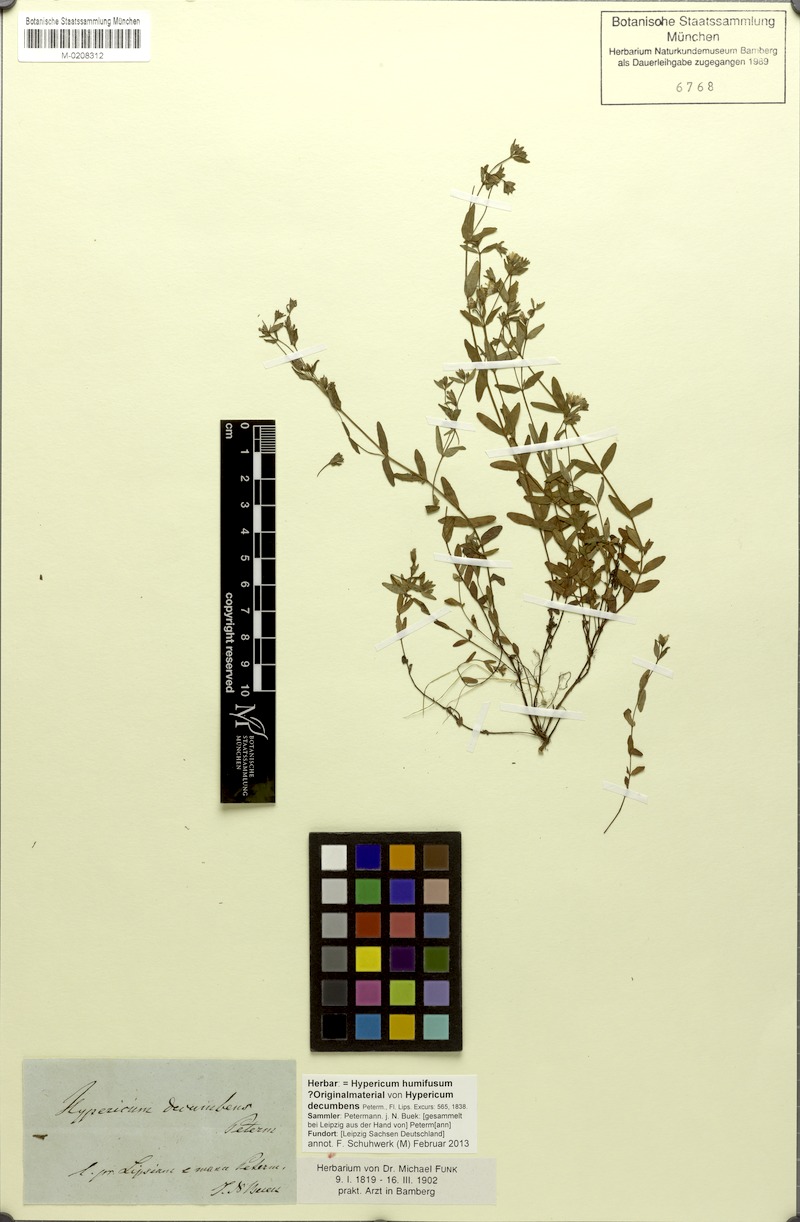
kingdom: Plantae
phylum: Tracheophyta
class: Magnoliopsida
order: Malpighiales
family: Hypericaceae
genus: Hypericum
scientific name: Hypericum humifusum
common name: Trailing st. john's-wort
